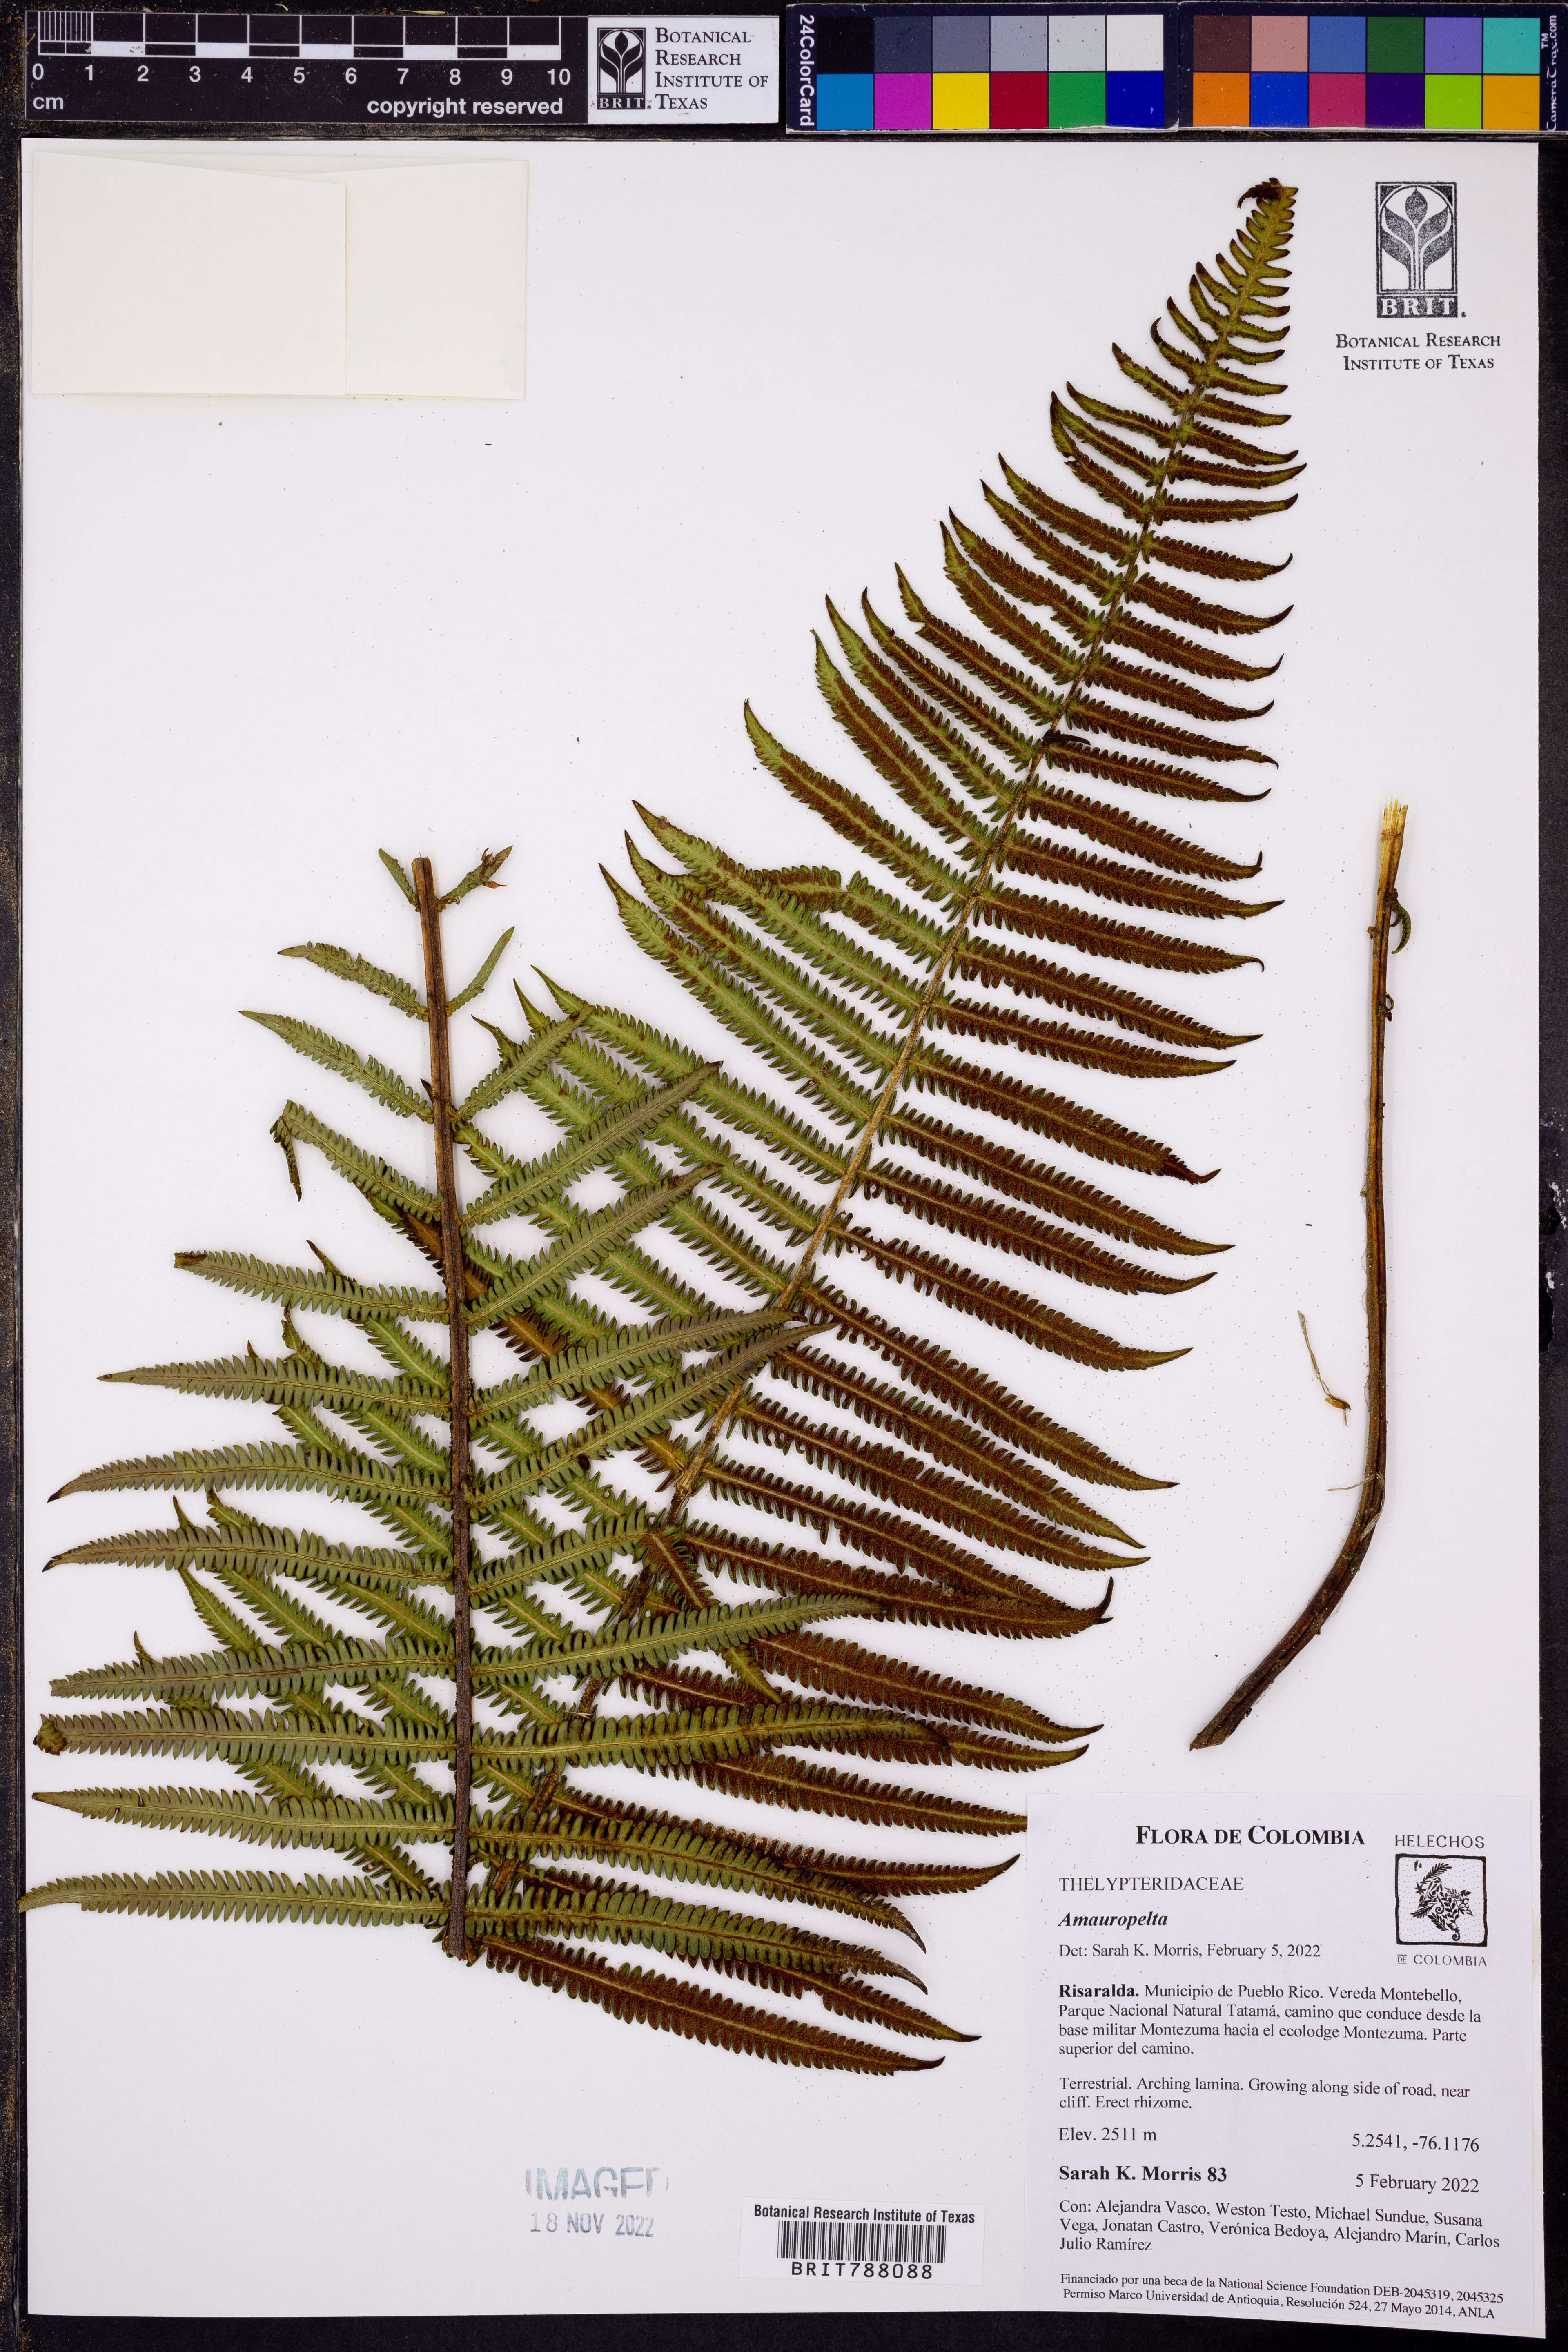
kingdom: Plantae
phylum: Tracheophyta
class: Polypodiopsida
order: Polypodiales
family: Thelypteridaceae
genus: Amauropelta
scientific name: Amauropelta
